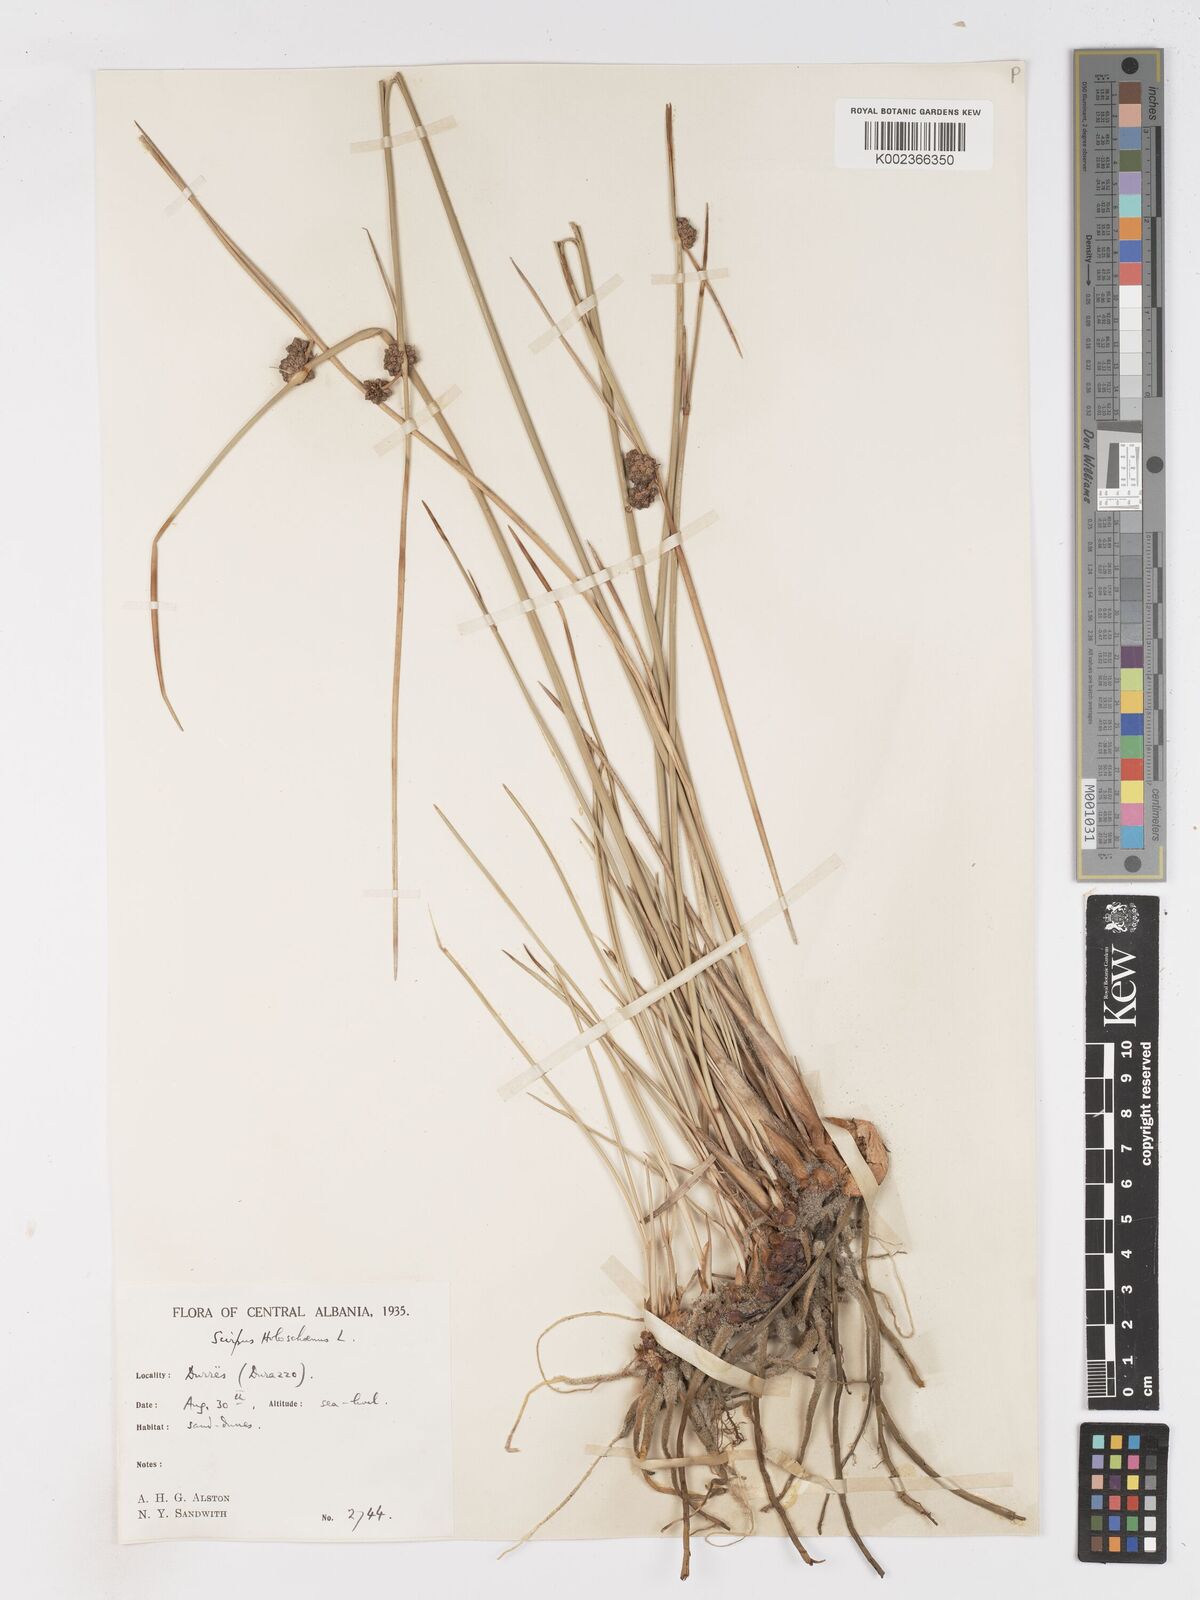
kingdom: Plantae
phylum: Tracheophyta
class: Liliopsida
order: Poales
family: Cyperaceae
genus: Scirpoides
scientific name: Scirpoides holoschoenus
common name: Round-headed club-rush
